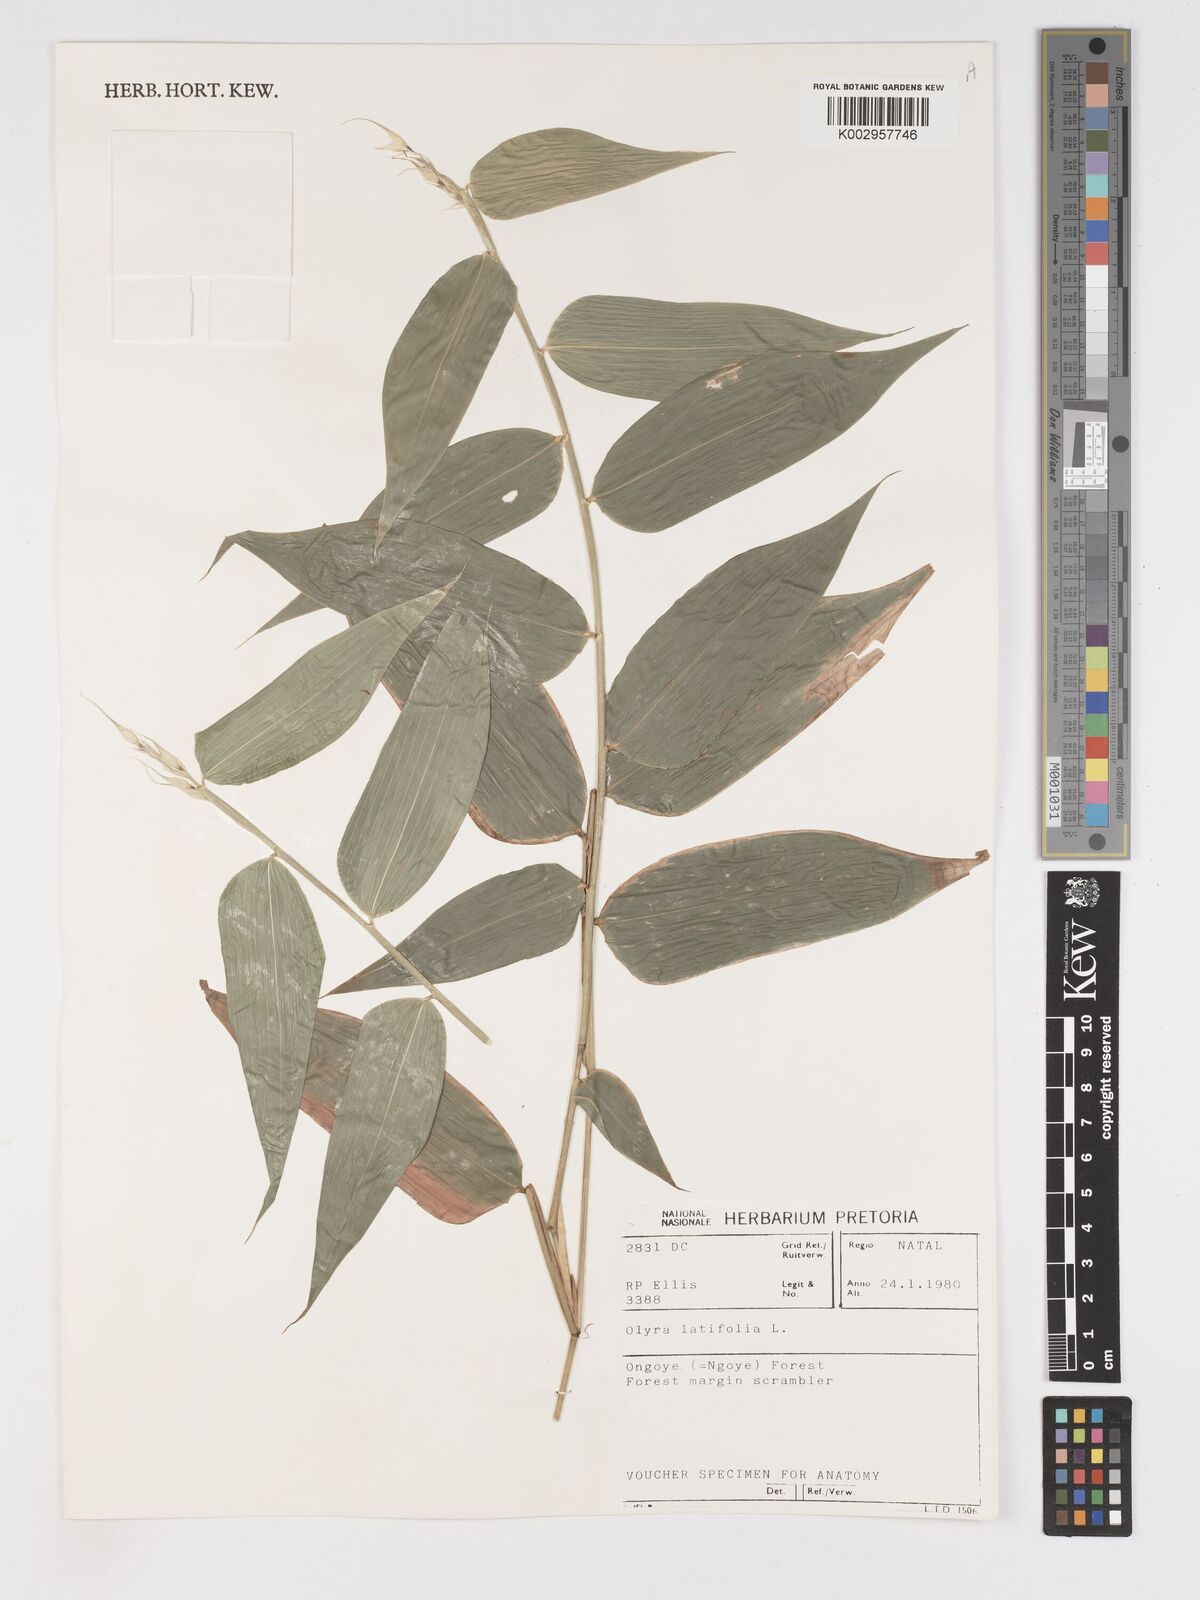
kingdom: Plantae
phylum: Tracheophyta
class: Liliopsida
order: Poales
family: Poaceae
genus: Olyra
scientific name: Olyra latifolia
